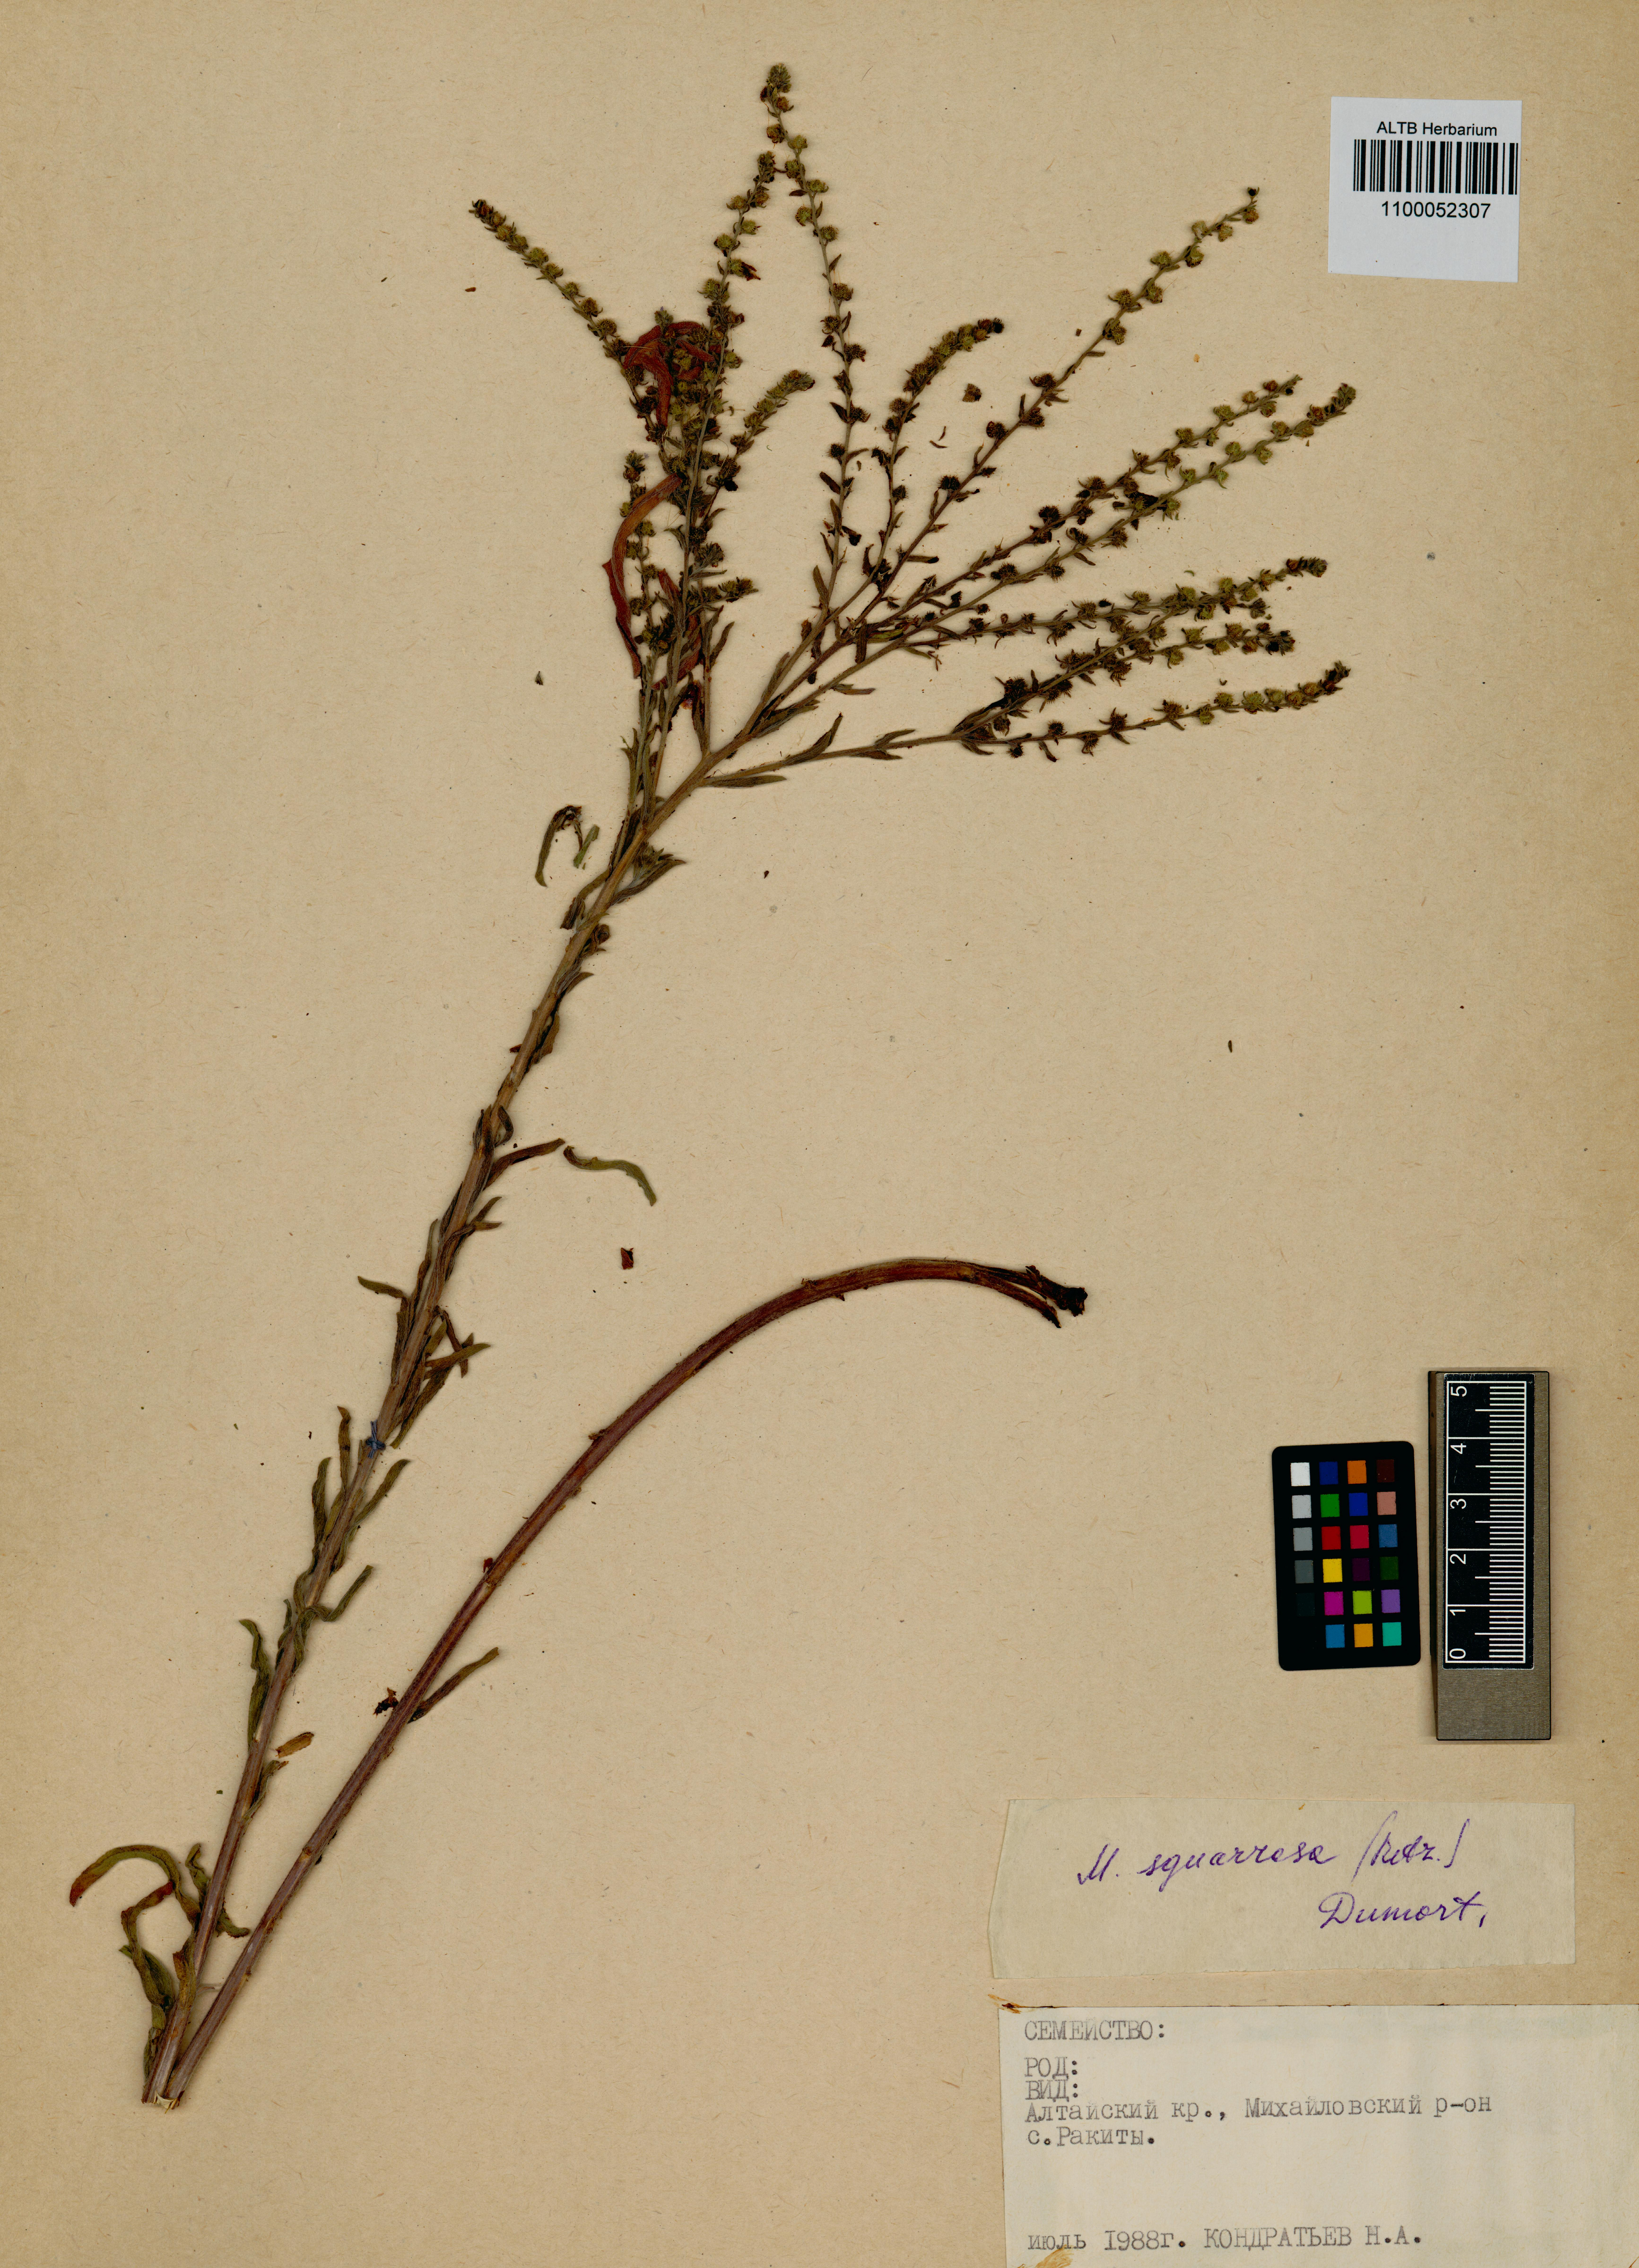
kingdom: Plantae
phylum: Tracheophyta
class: Magnoliopsida
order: Boraginales
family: Boraginaceae
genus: Lappula
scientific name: Lappula squarrosa
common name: European stickseed
